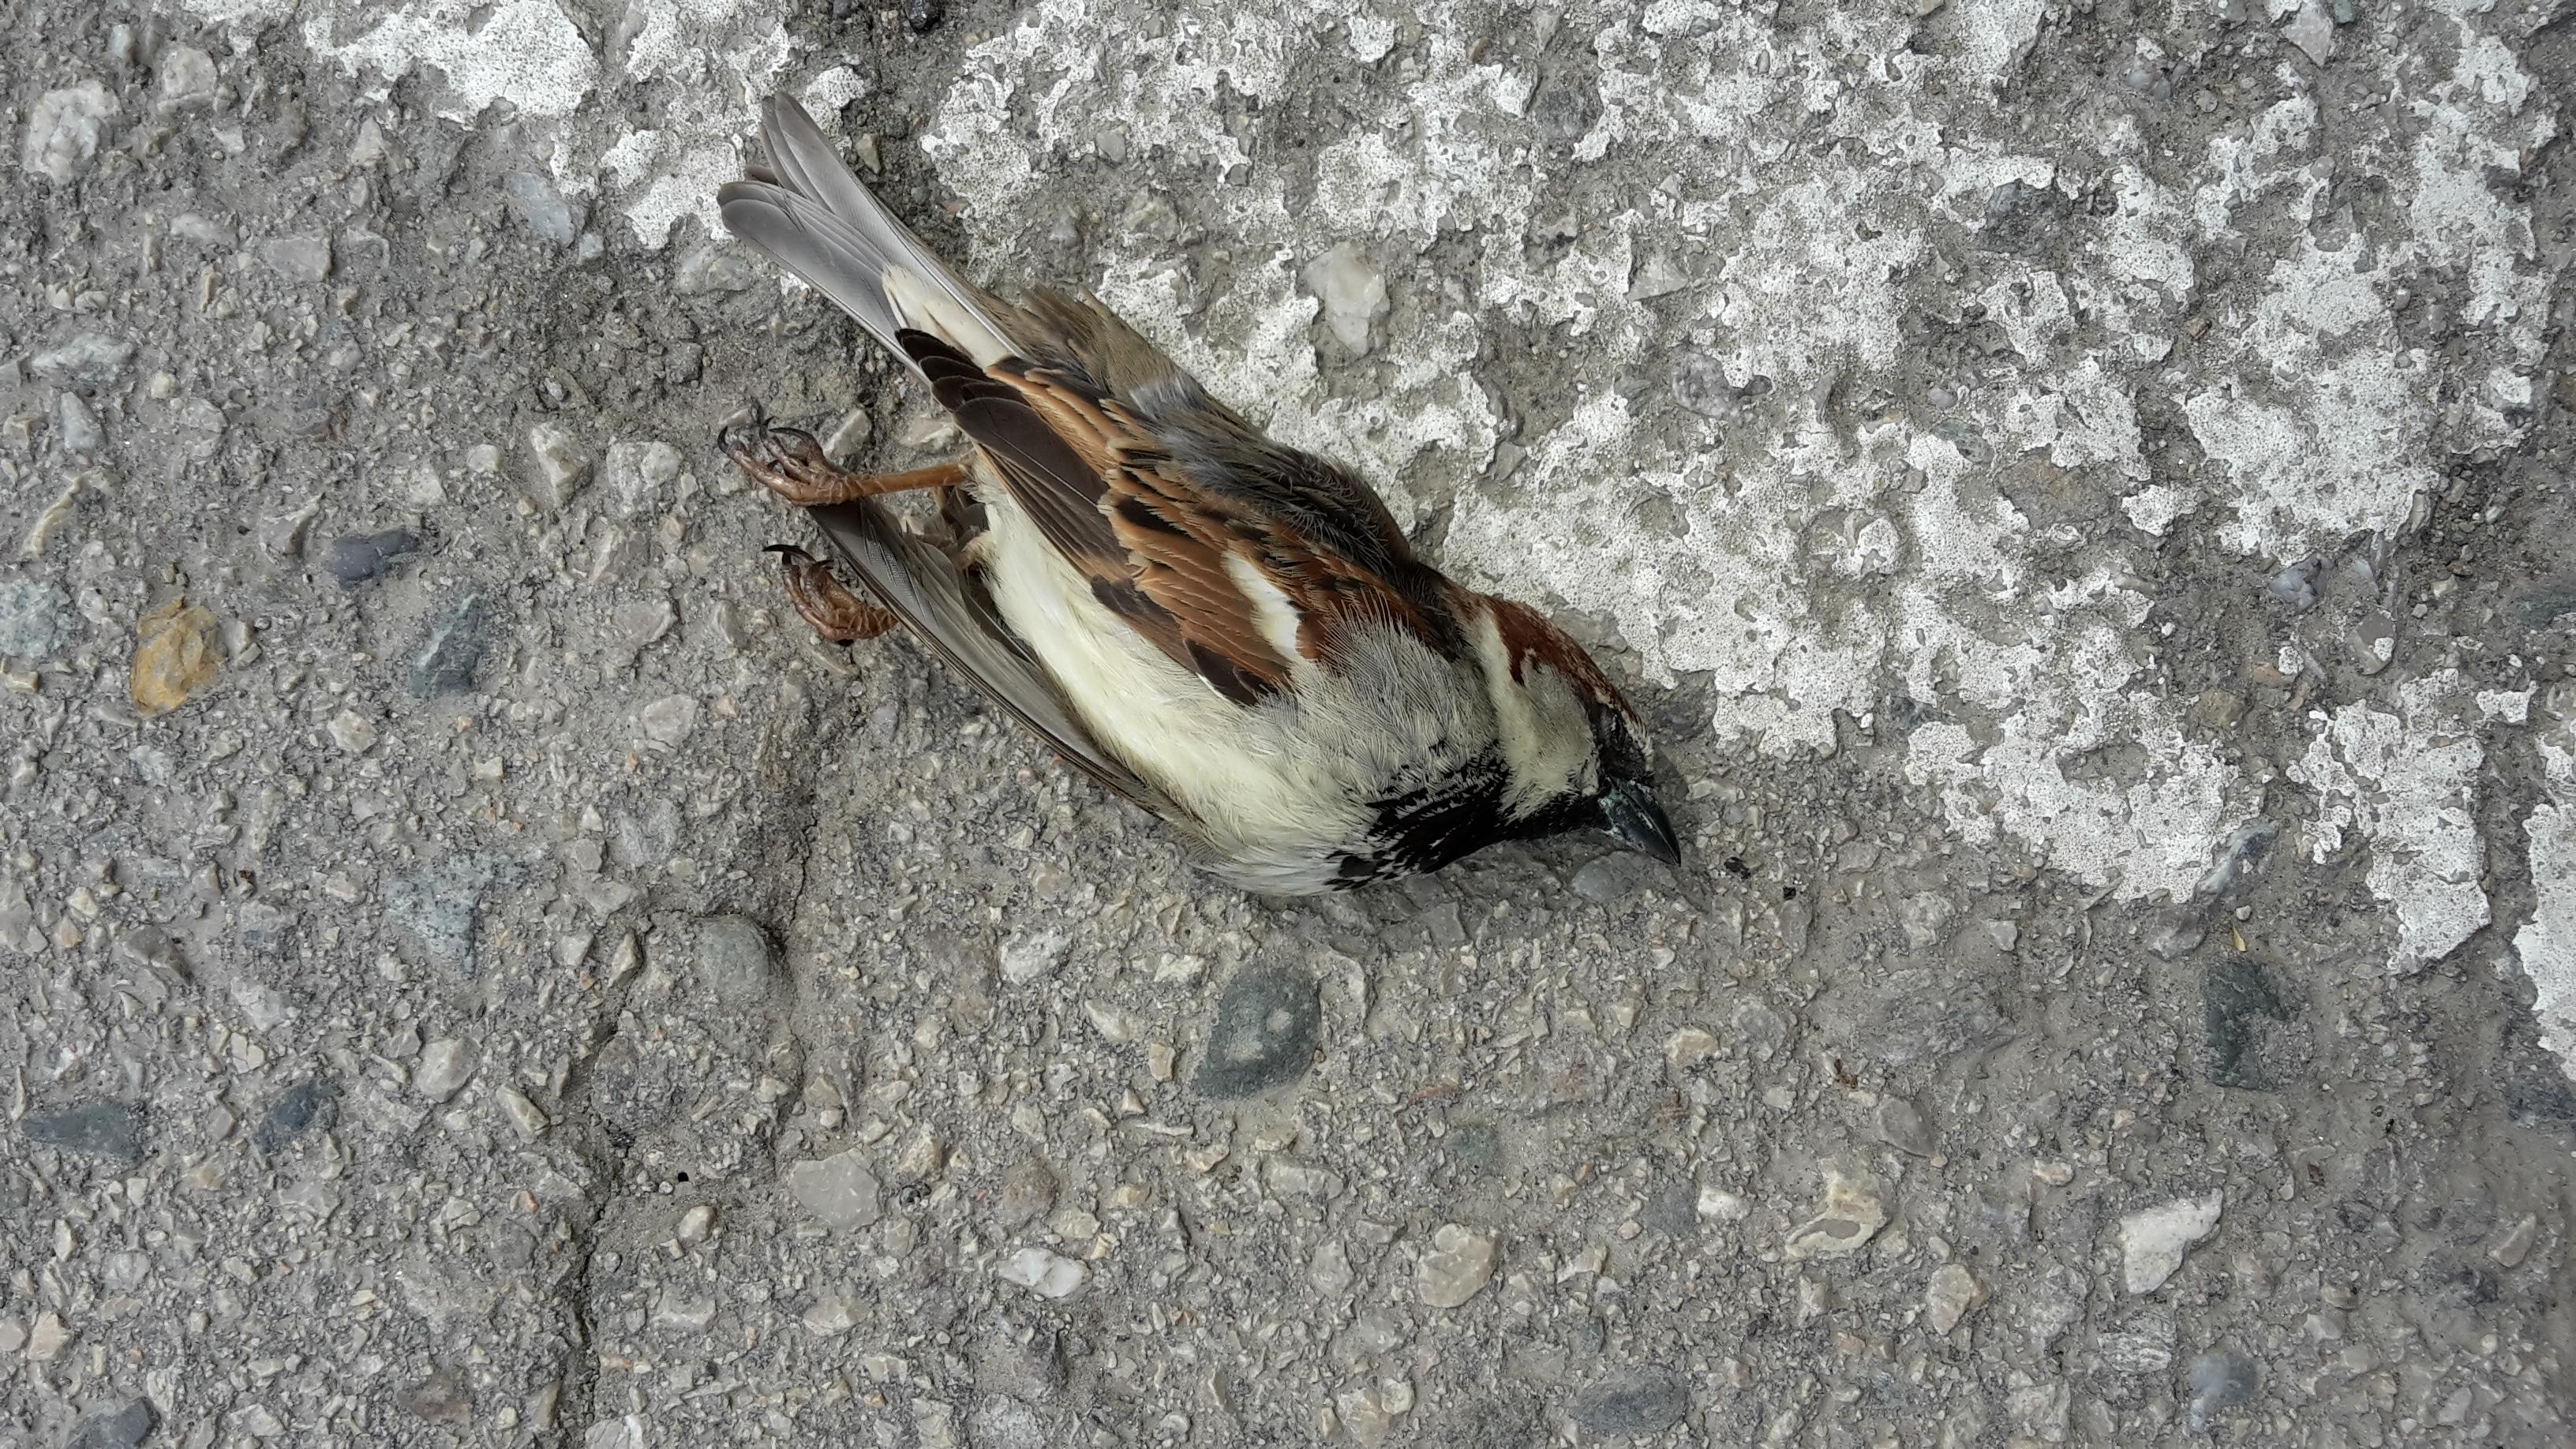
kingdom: Animalia
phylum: Chordata
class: Aves
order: Passeriformes
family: Passeridae
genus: Passer
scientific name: Passer domesticus
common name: House sparrow
